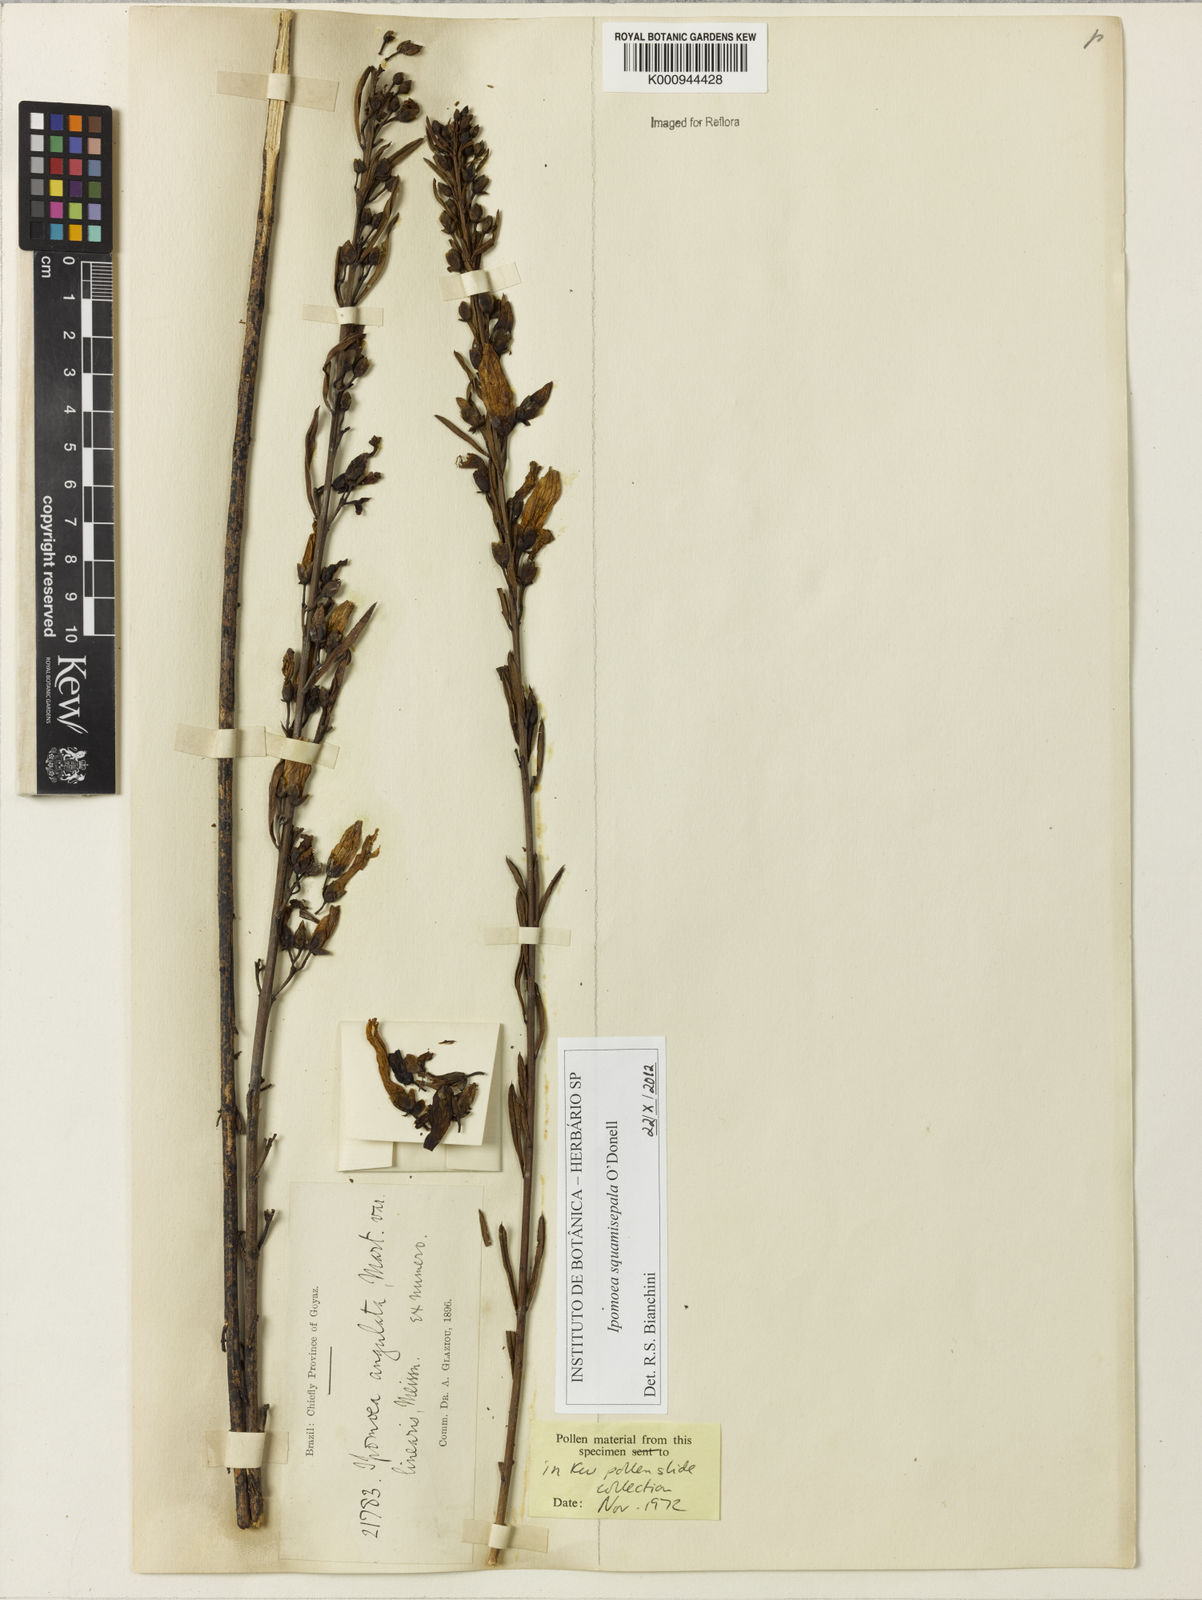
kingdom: Plantae
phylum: Tracheophyta
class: Magnoliopsida
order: Solanales
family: Convolvulaceae
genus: Ipomoea
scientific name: Ipomoea
